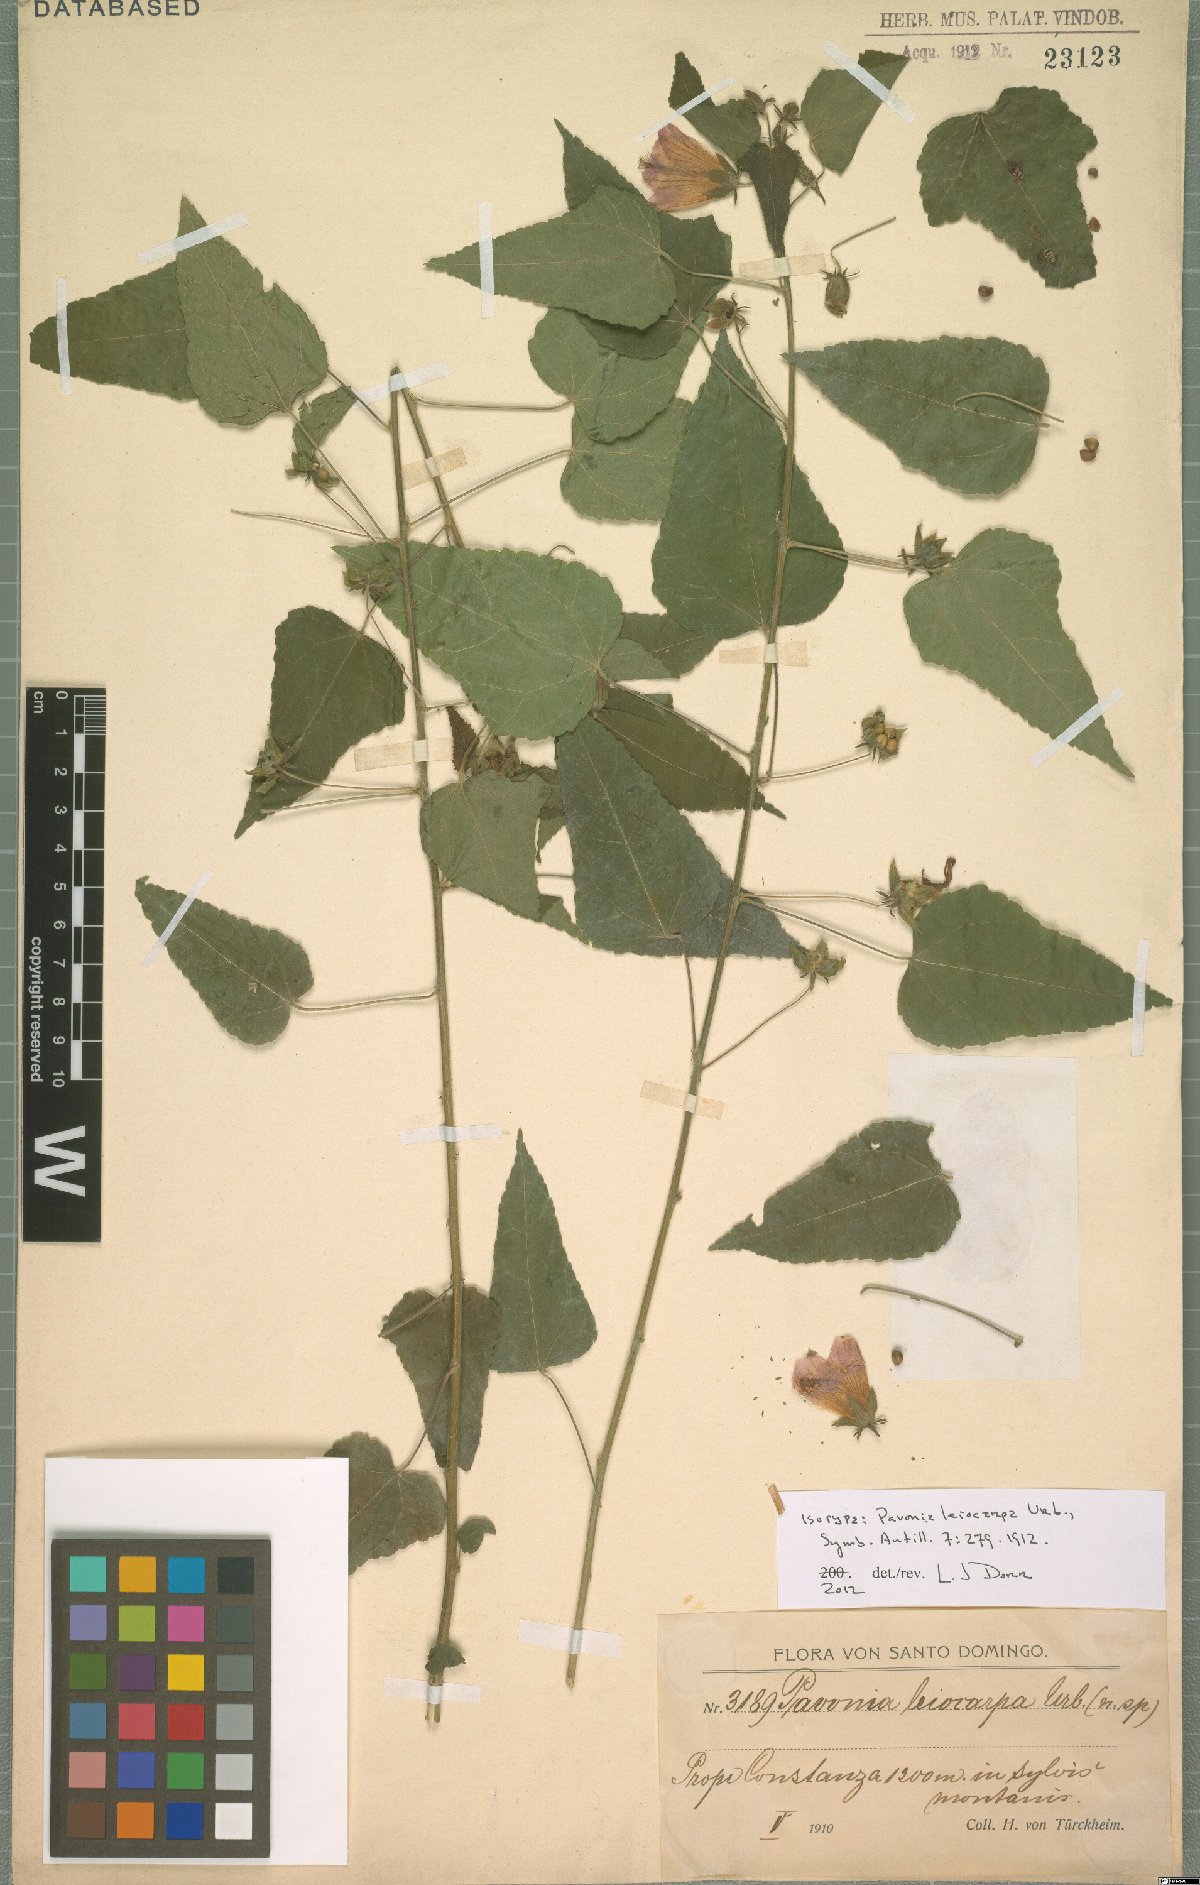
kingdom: Plantae
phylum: Tracheophyta
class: Magnoliopsida
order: Malvales
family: Malvaceae
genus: Pavonia
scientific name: Pavonia leiocarpa
